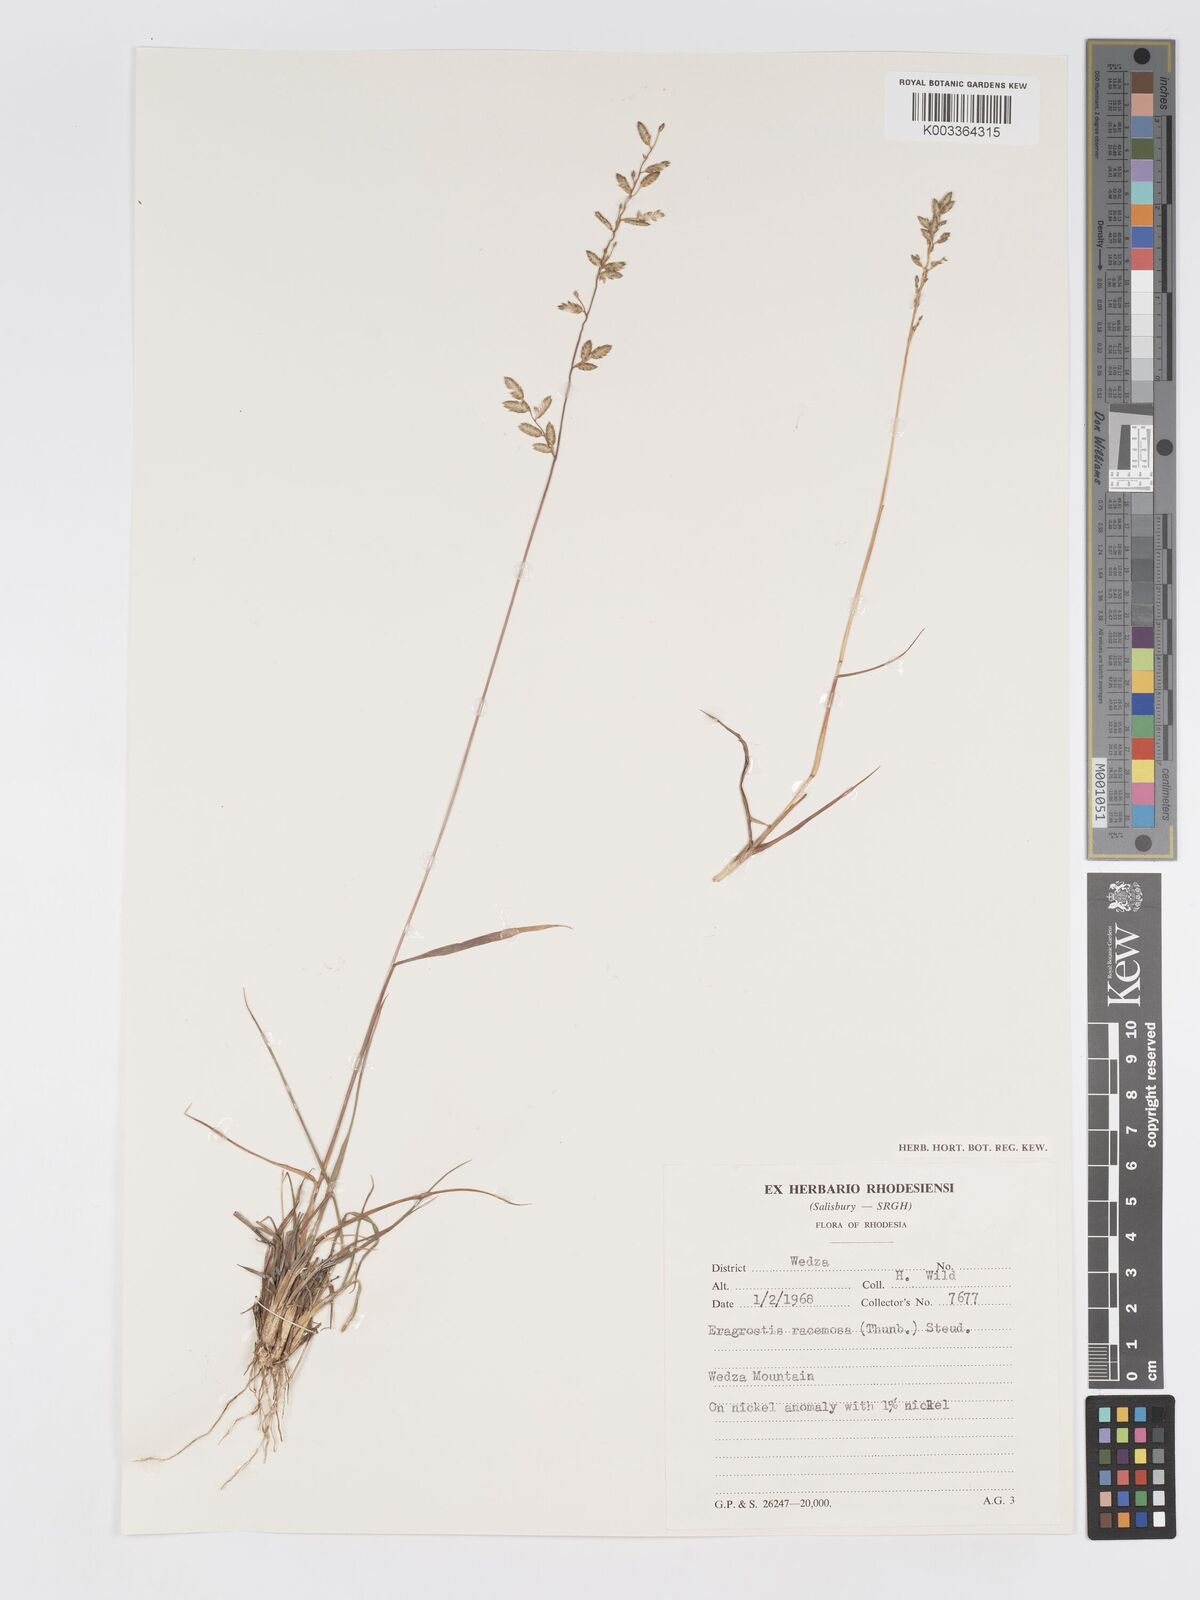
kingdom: Plantae
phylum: Tracheophyta
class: Liliopsida
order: Poales
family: Poaceae
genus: Eragrostis
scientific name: Eragrostis racemosa
